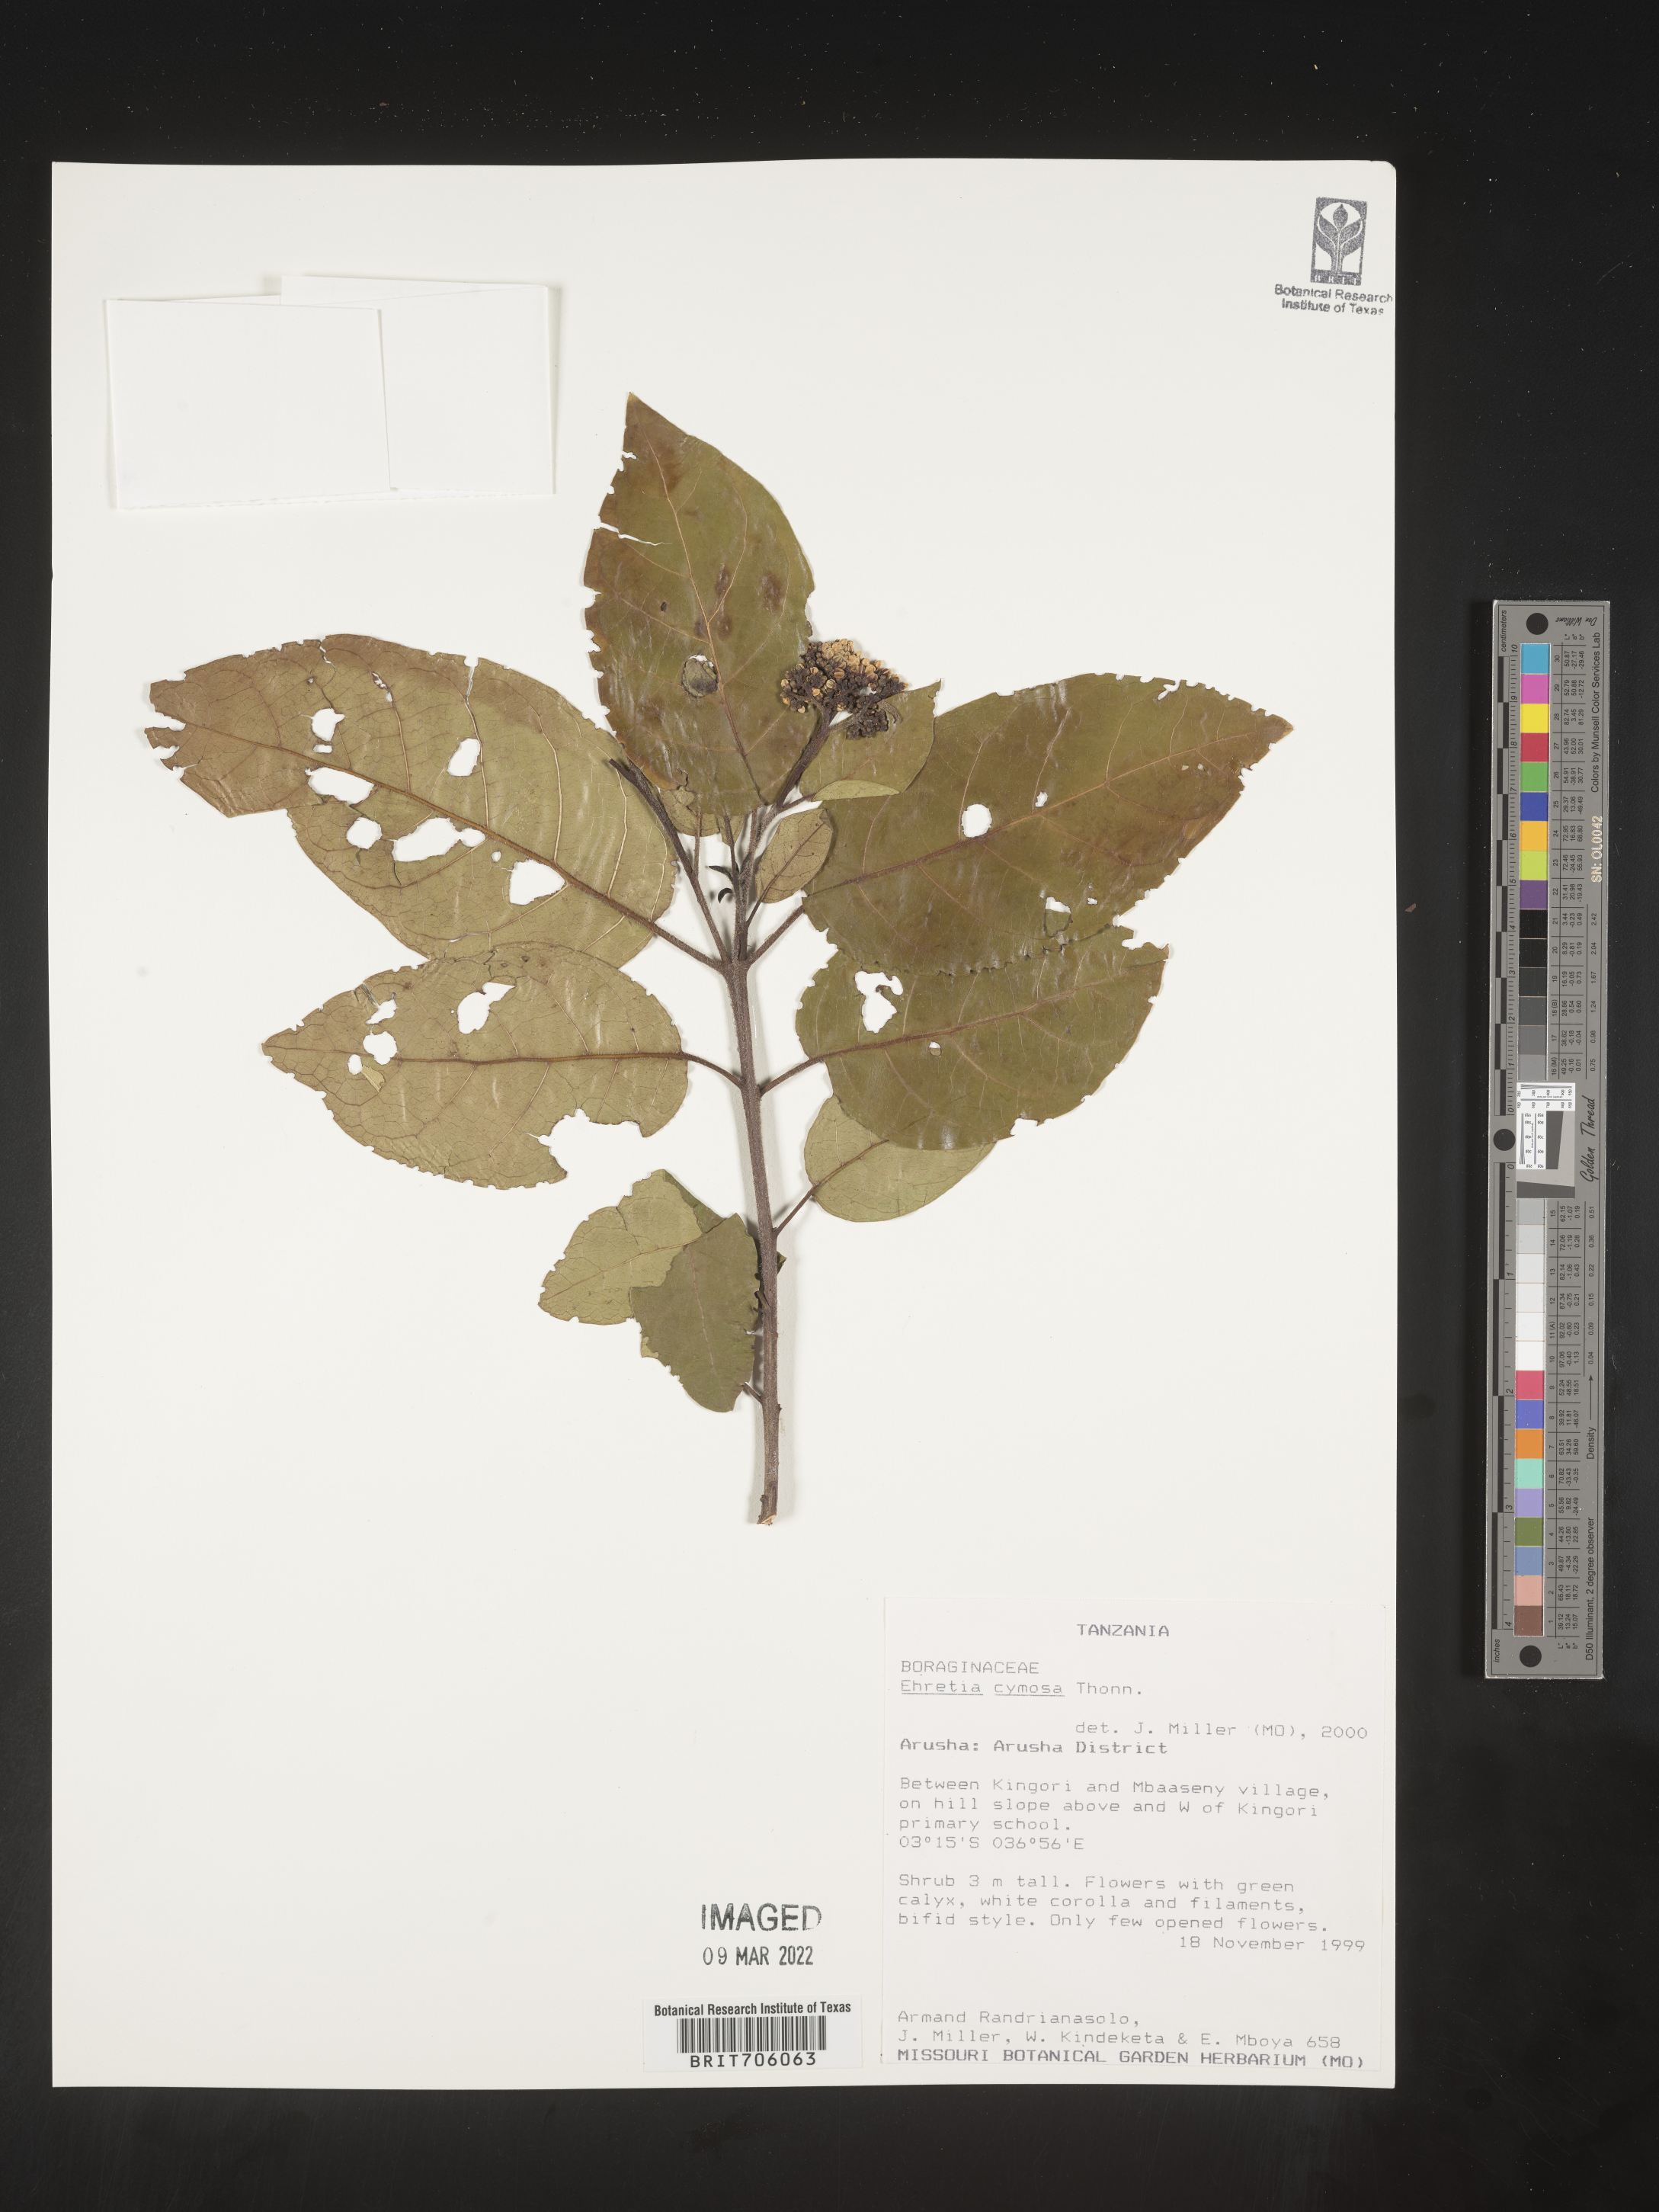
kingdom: Plantae
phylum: Tracheophyta
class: Magnoliopsida
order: Boraginales
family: Ehretiaceae
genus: Ehretia
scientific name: Ehretia
